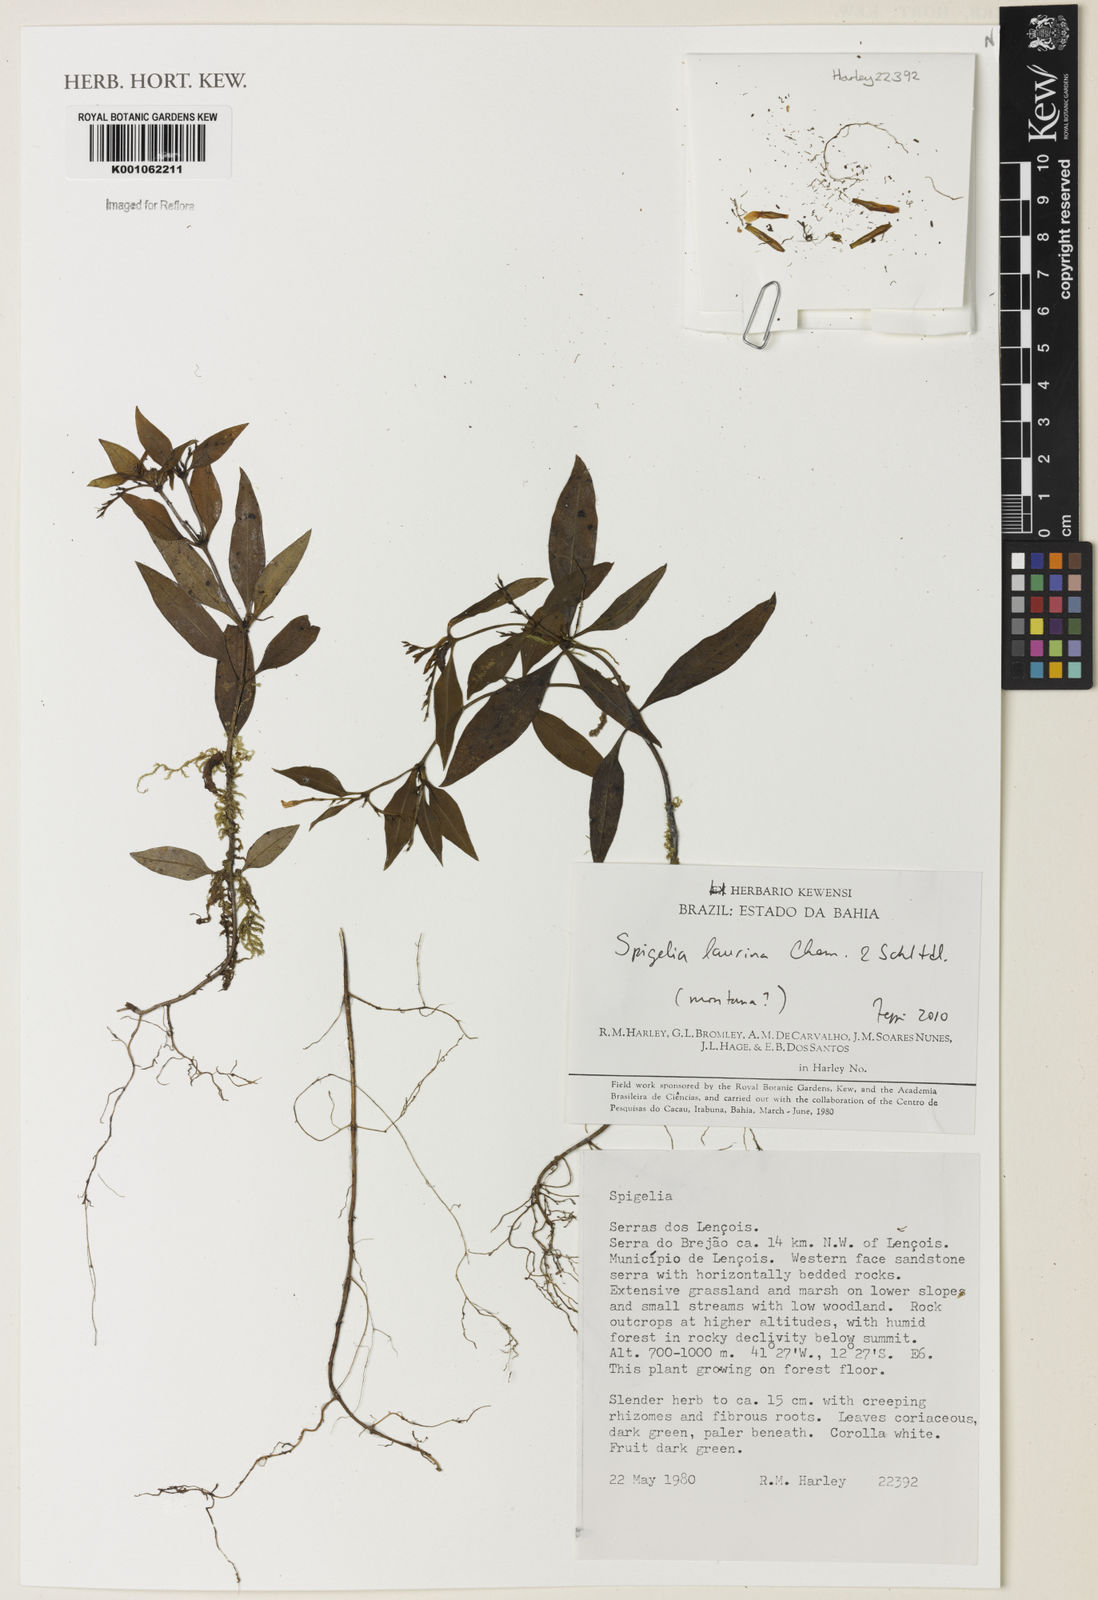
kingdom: Plantae
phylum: Tracheophyta
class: Magnoliopsida
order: Gentianales
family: Loganiaceae
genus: Spigelia
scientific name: Spigelia laurina
